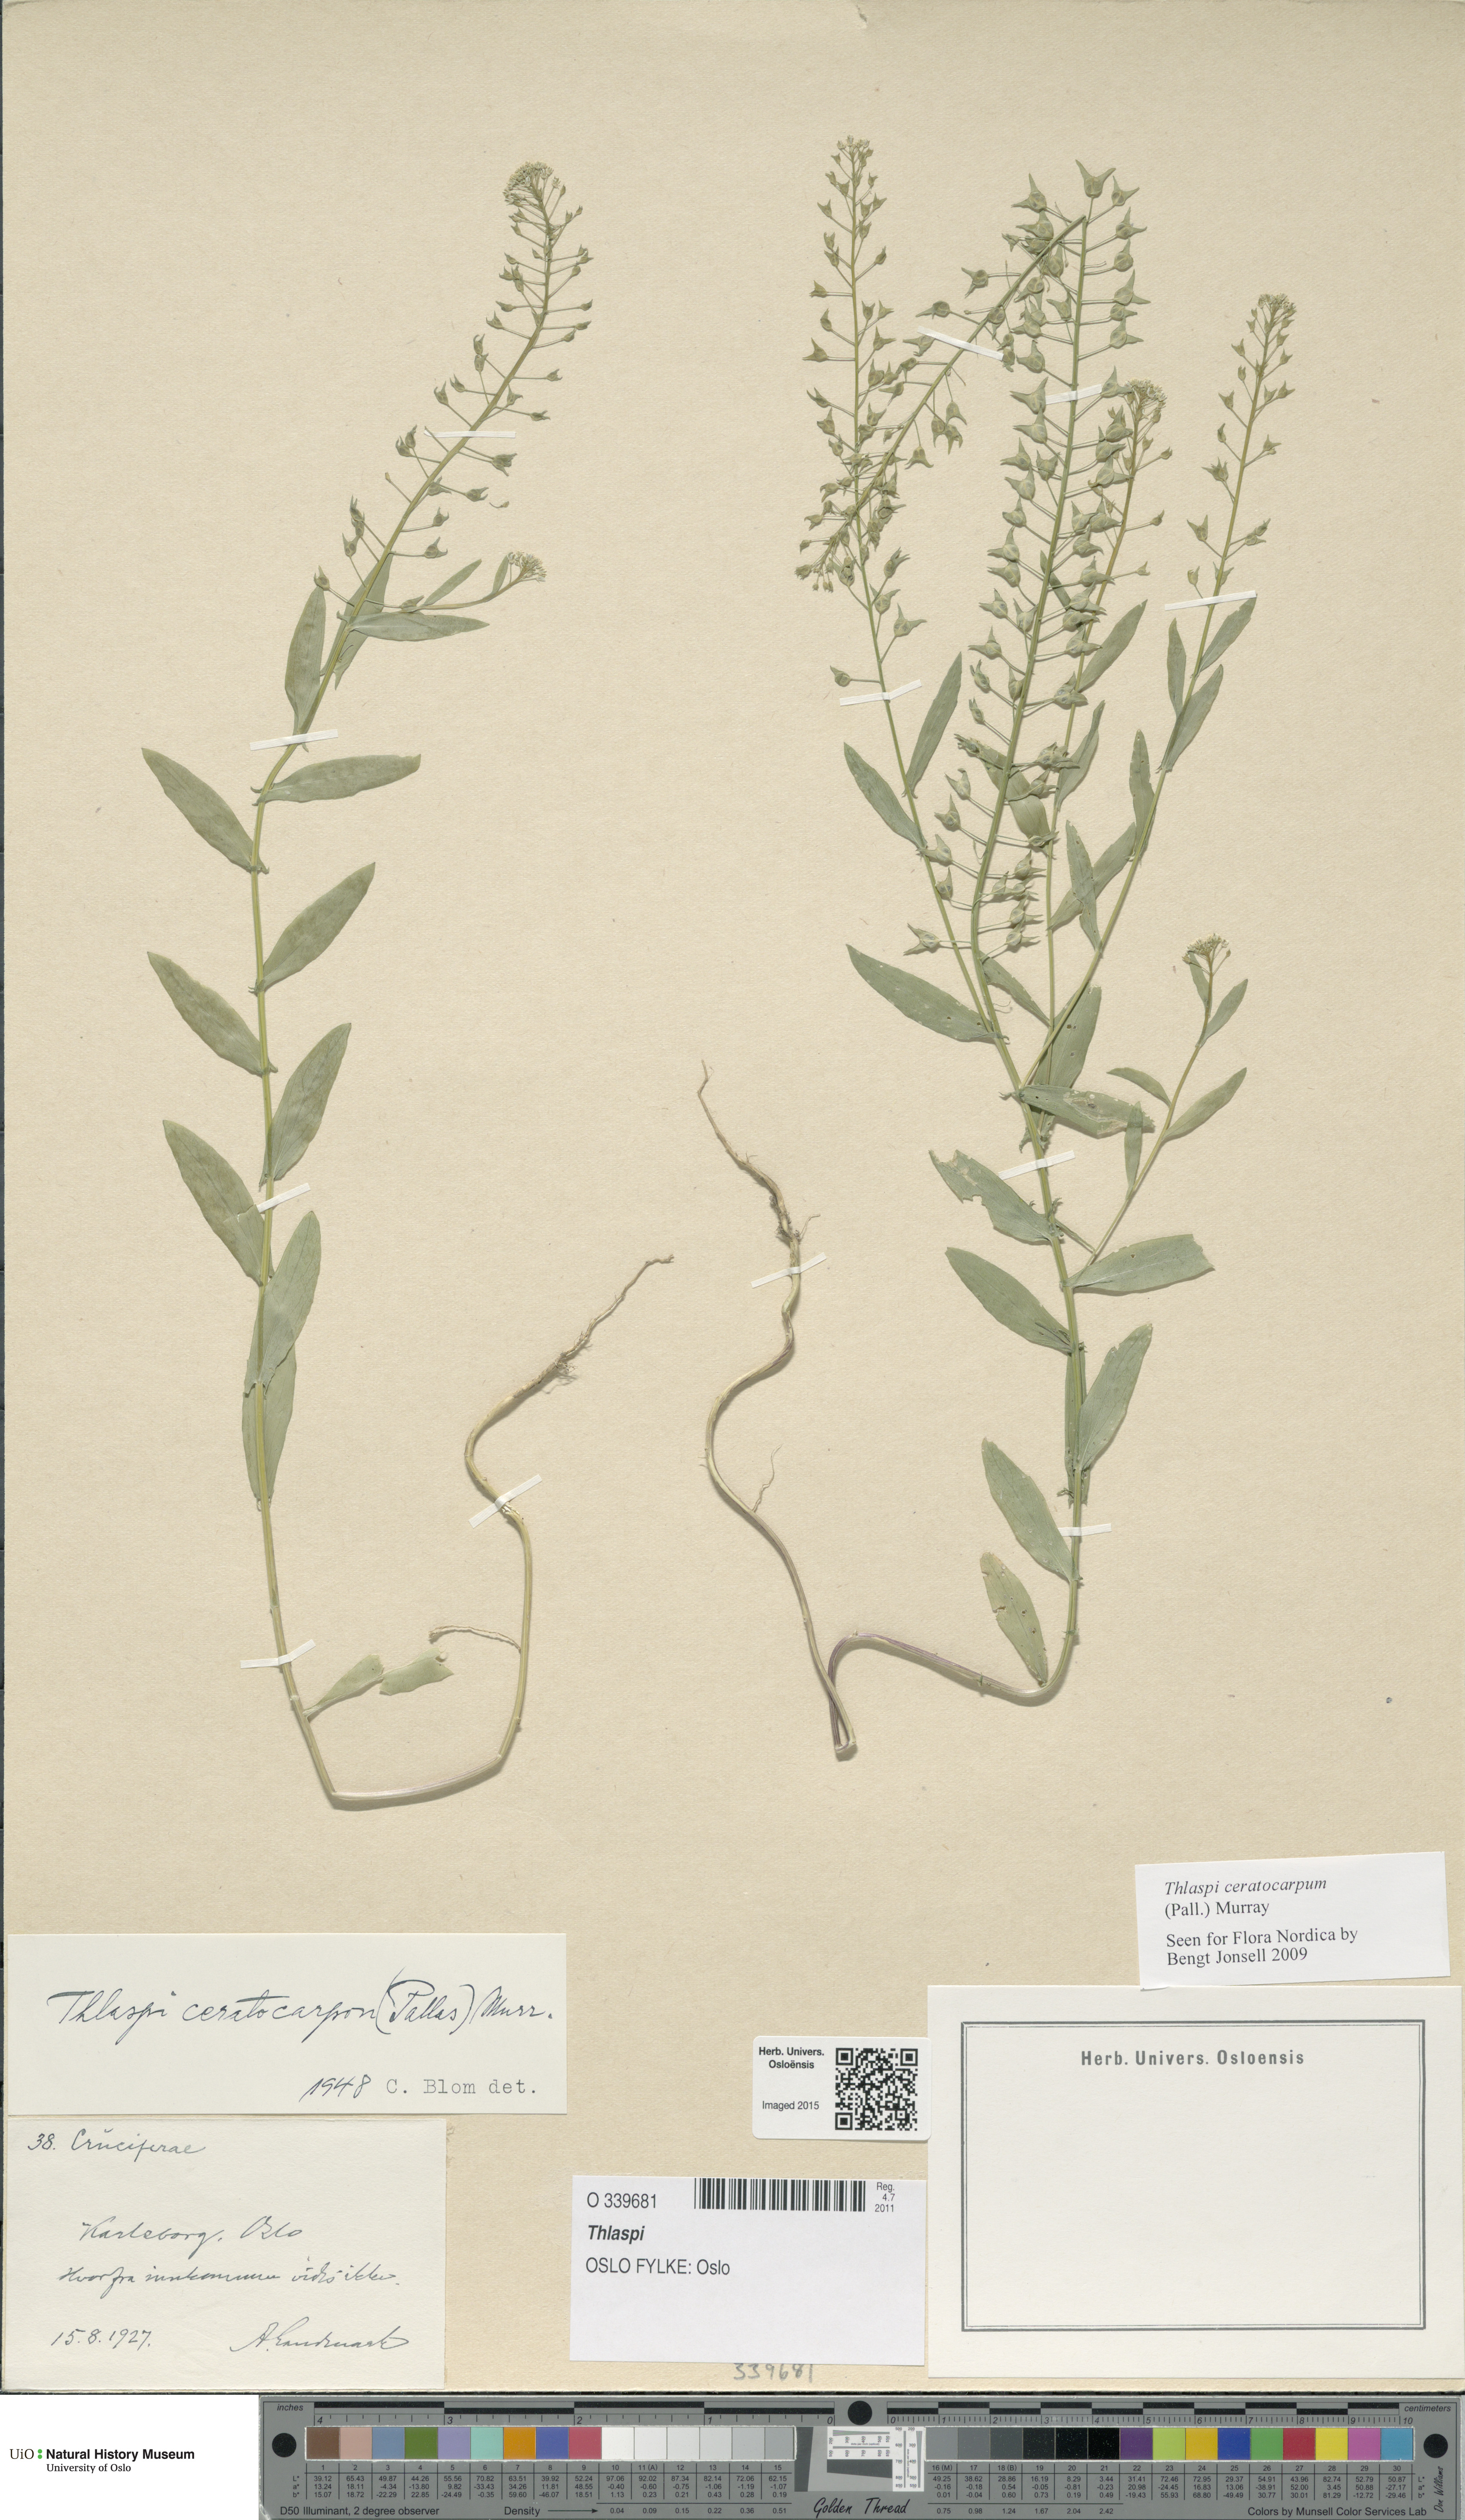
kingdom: Plantae
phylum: Tracheophyta
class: Magnoliopsida
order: Brassicales
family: Brassicaceae
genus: Thlaspi
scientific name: Thlaspi
